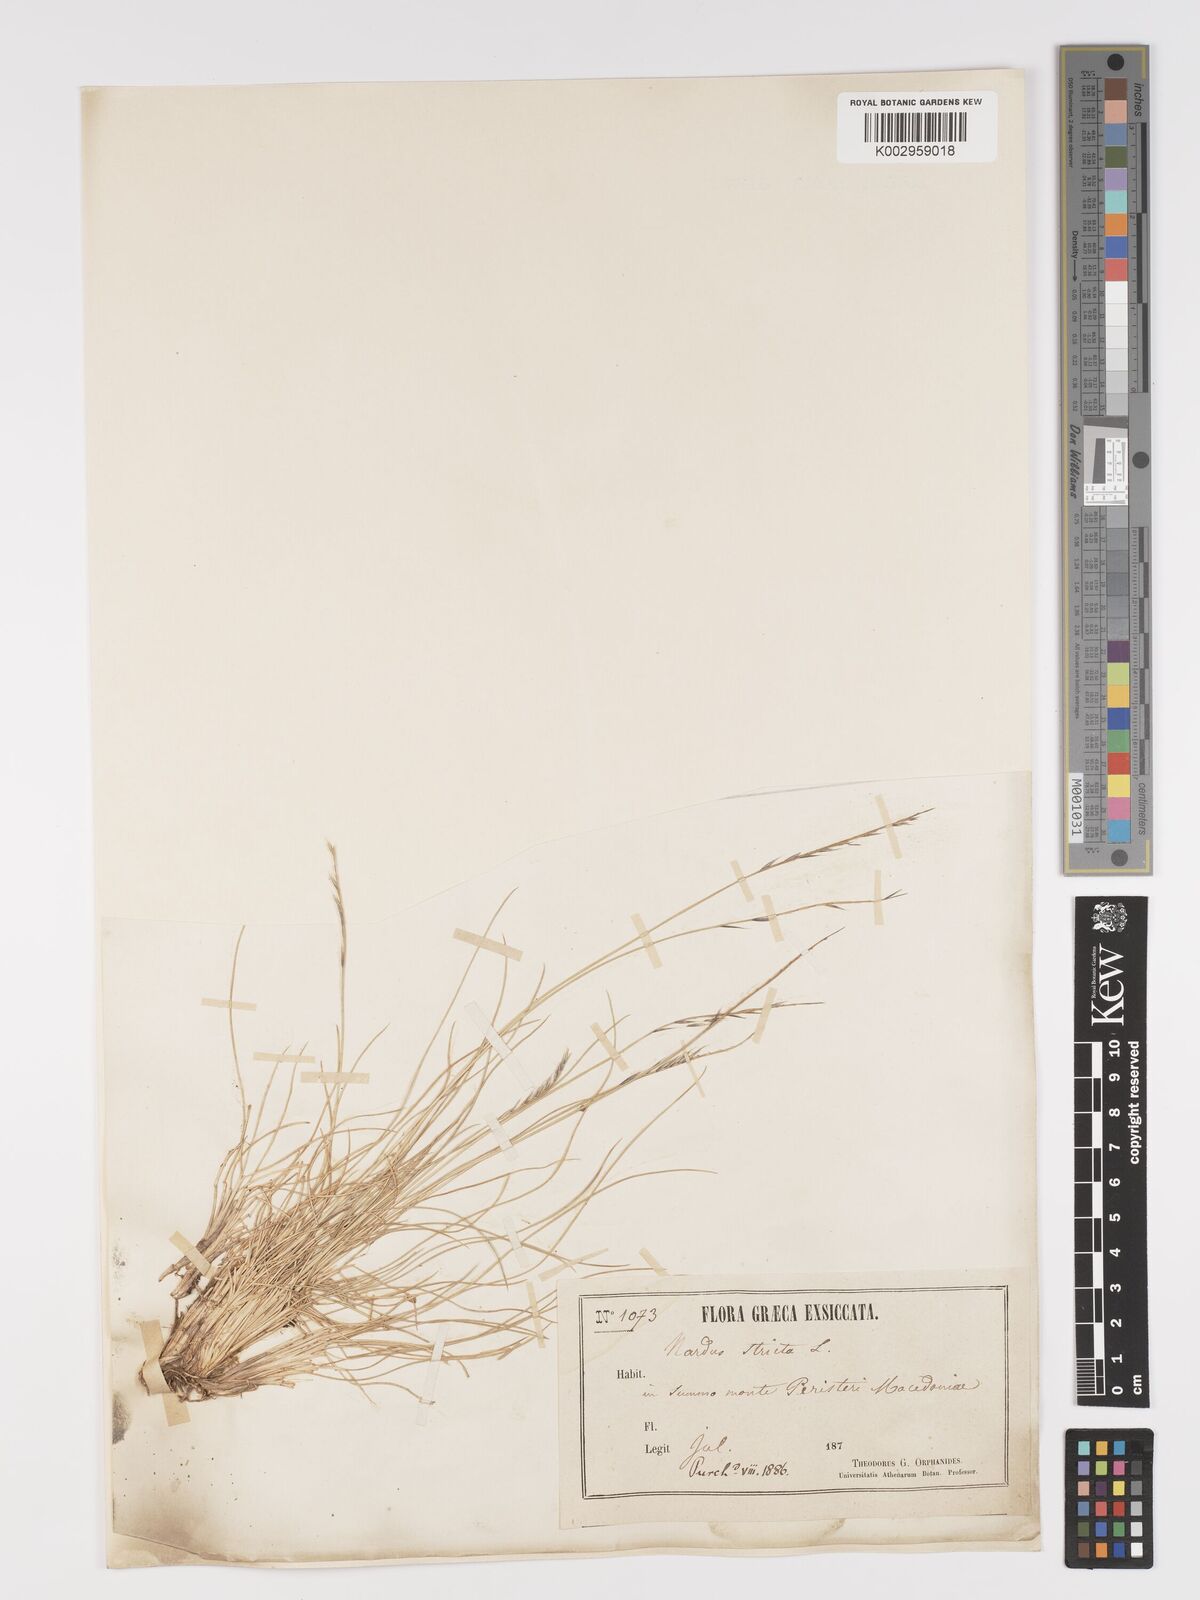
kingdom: Plantae
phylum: Tracheophyta
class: Liliopsida
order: Poales
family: Poaceae
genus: Nardus
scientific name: Nardus stricta
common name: Mat-grass
